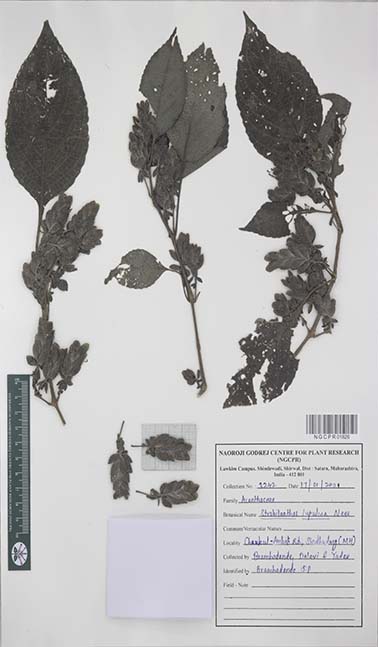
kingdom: Plantae
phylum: Tracheophyta
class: Magnoliopsida
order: Lamiales
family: Acanthaceae
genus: Strobilanthes
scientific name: Strobilanthes lupulina
